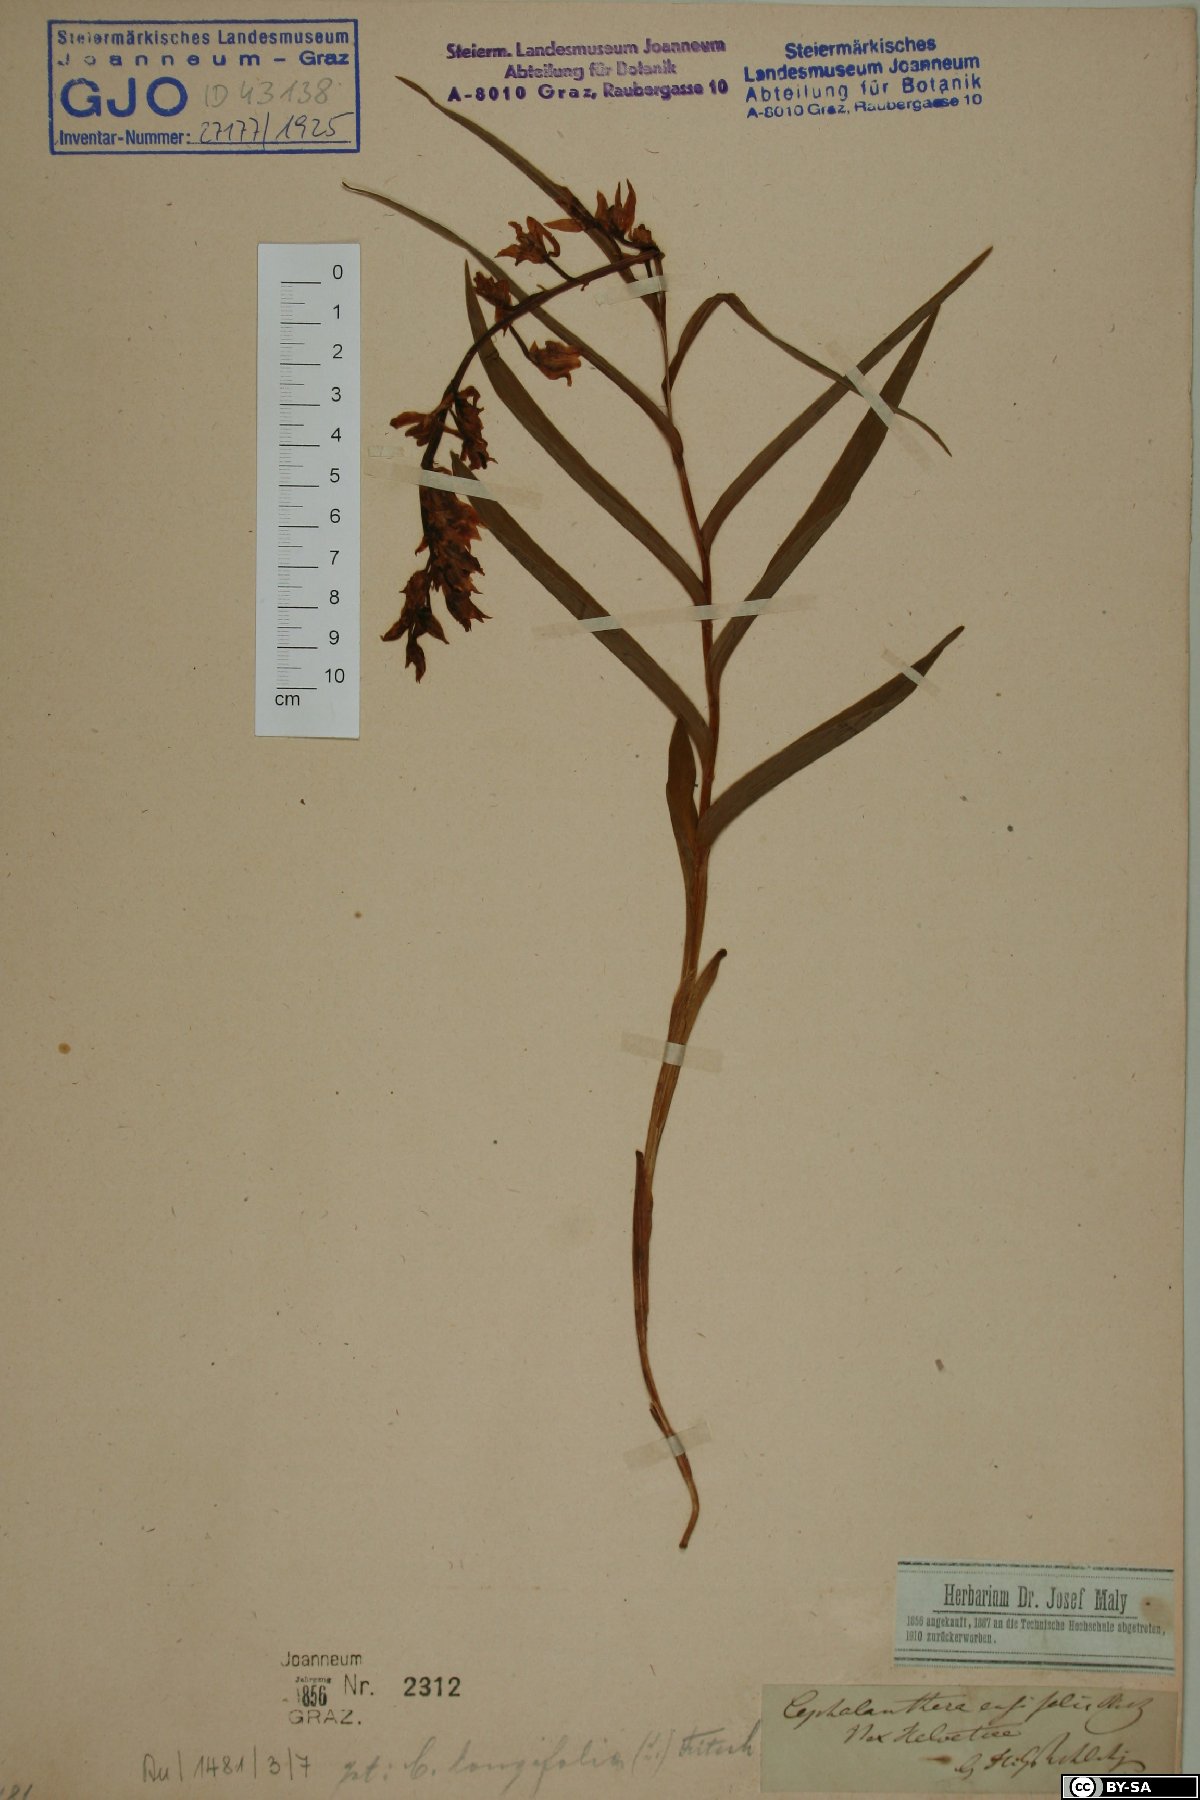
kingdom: Plantae
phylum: Tracheophyta
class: Liliopsida
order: Asparagales
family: Orchidaceae
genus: Cephalanthera
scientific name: Cephalanthera longifolia
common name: Narrow-leaved helleborine
